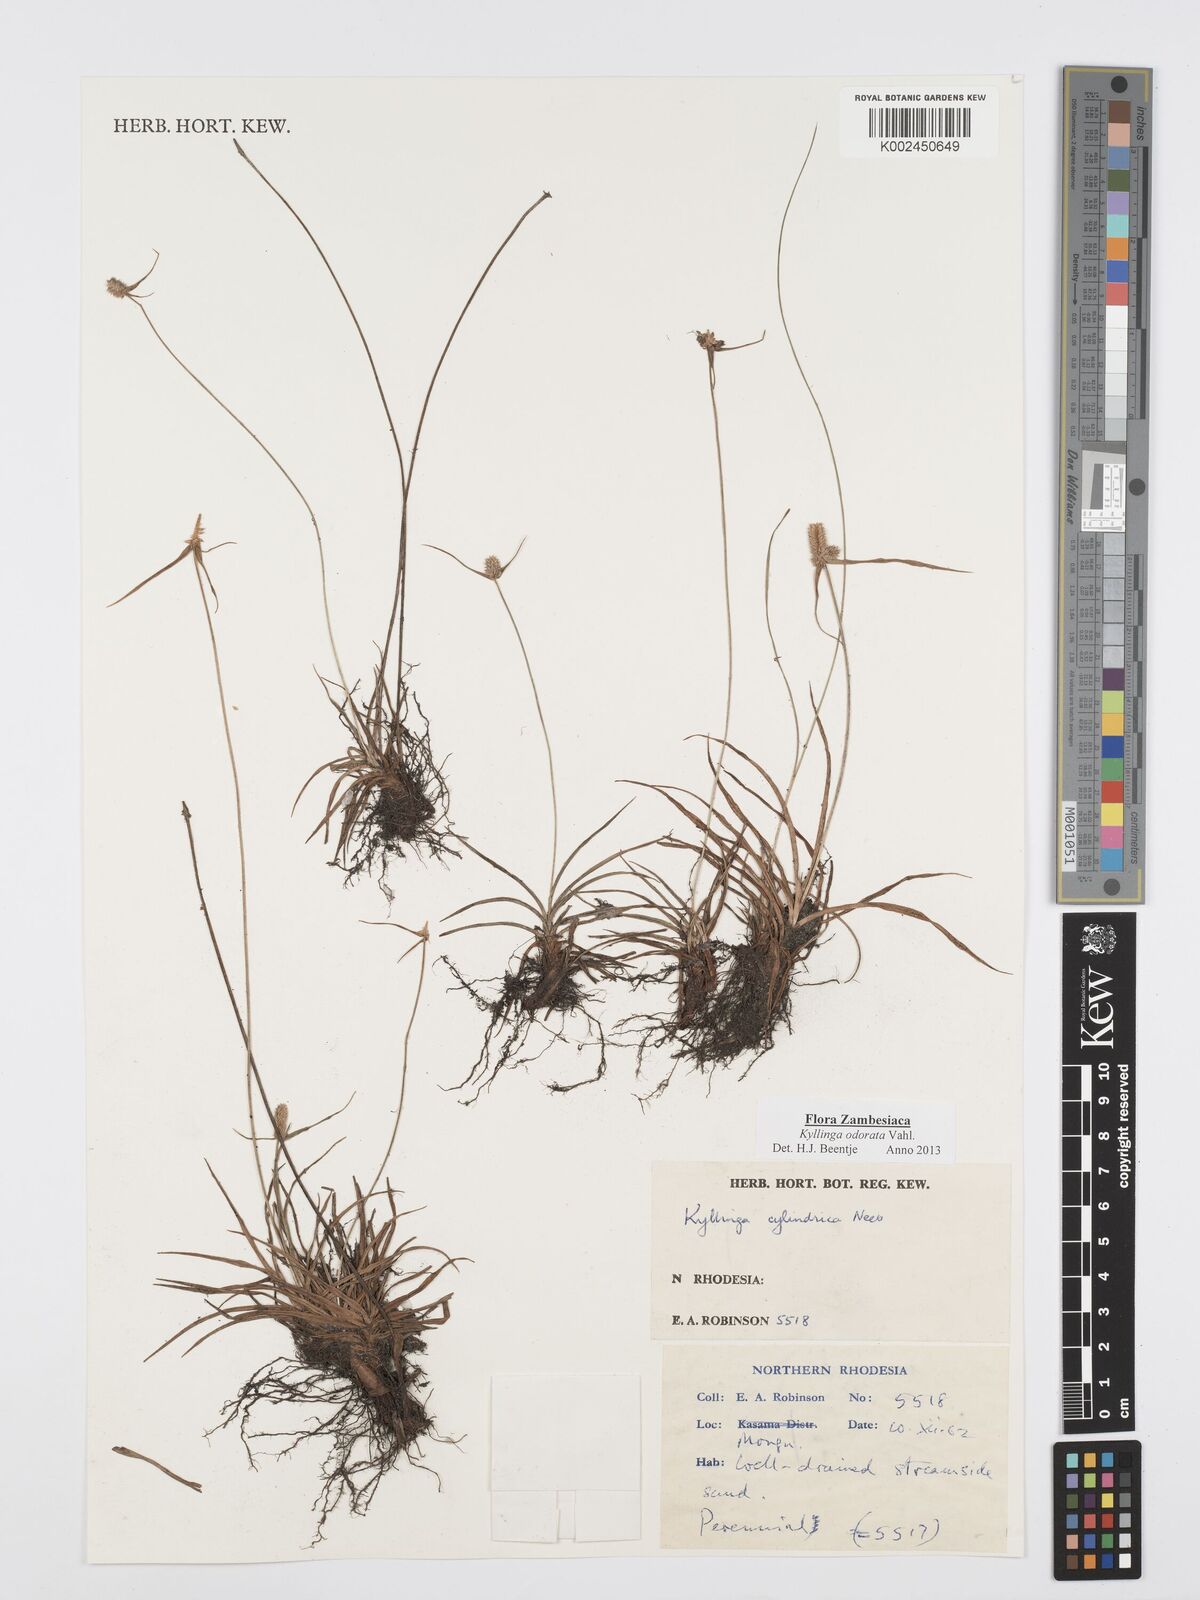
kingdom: Plantae
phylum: Tracheophyta
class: Liliopsida
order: Poales
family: Cyperaceae
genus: Cyperus
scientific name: Cyperus
